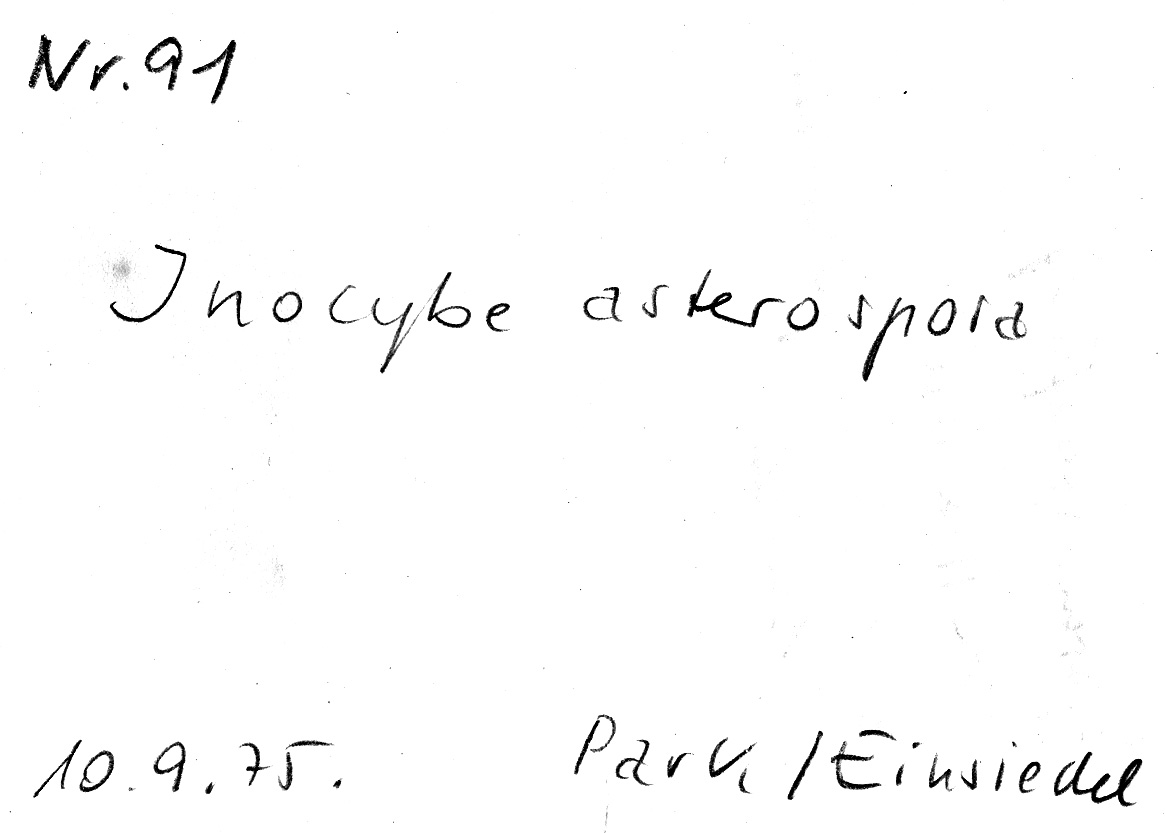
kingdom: Fungi
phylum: Basidiomycota
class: Agaricomycetes
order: Agaricales
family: Inocybaceae
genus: Inocybe
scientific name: Inocybe asterospora
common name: Star fibrecap
